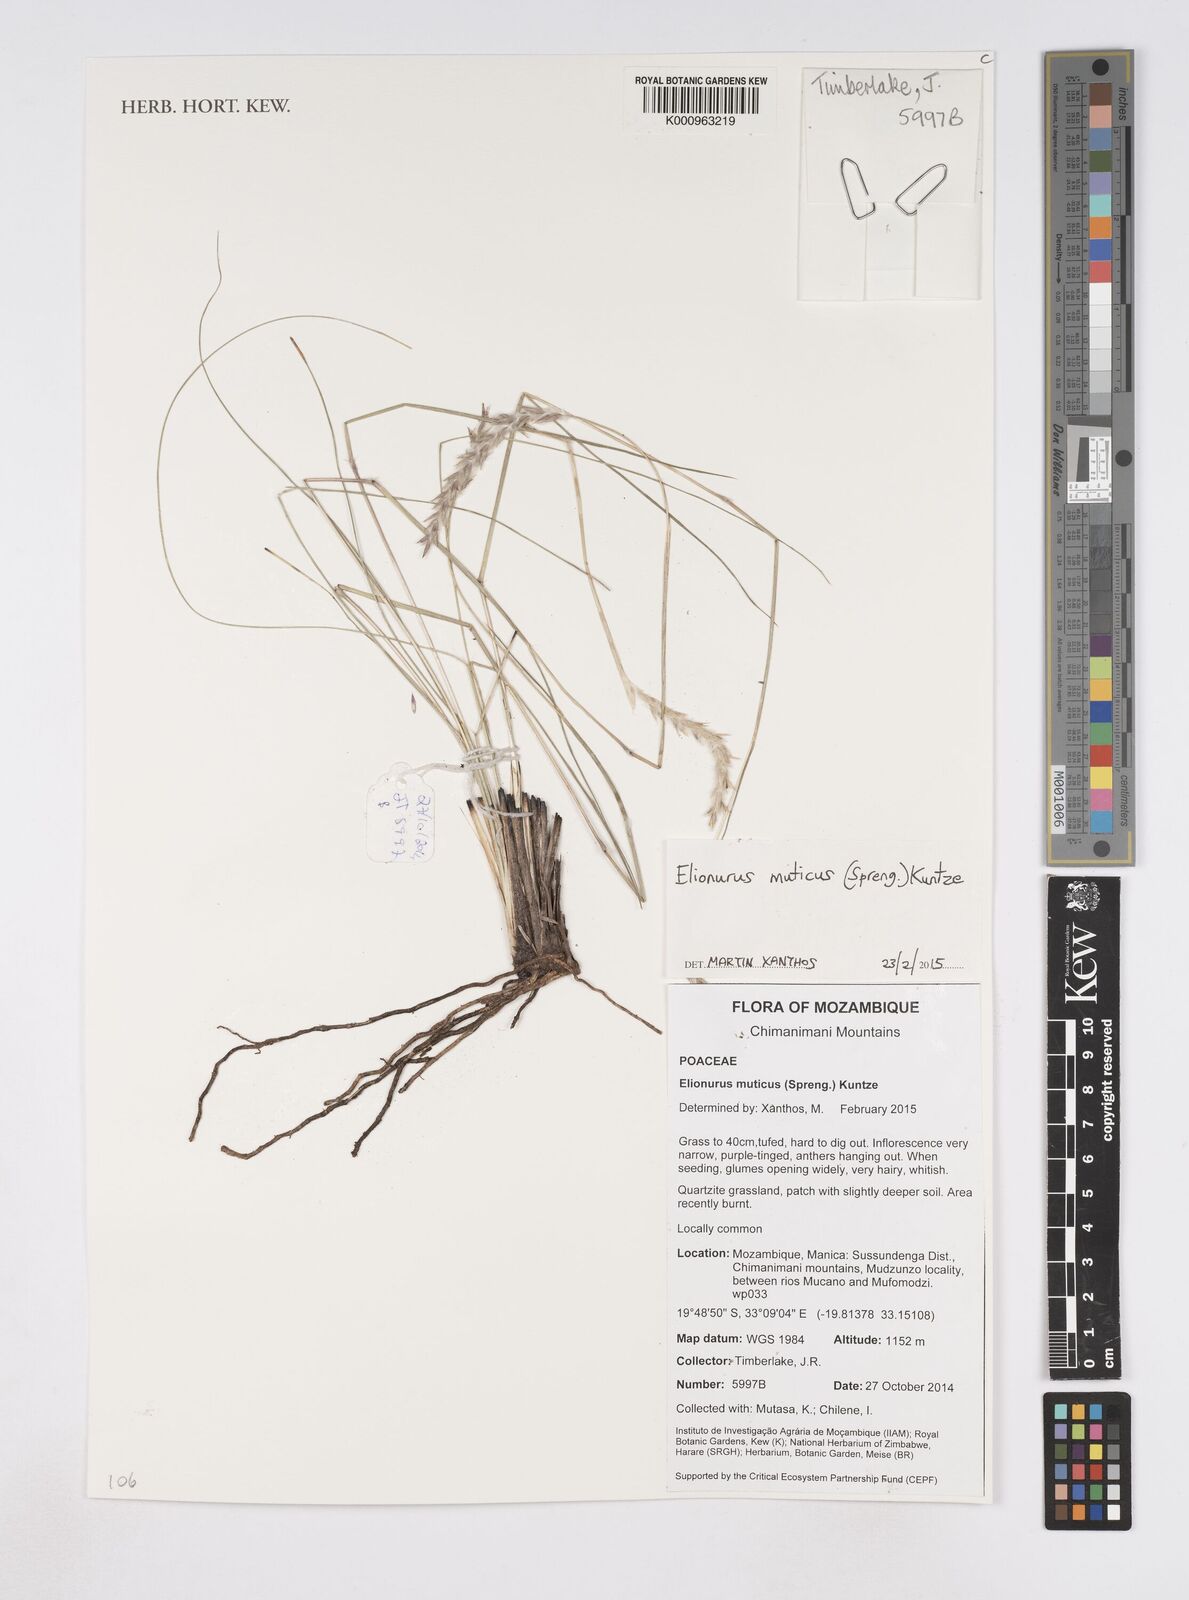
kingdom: Plantae
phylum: Tracheophyta
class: Liliopsida
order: Poales
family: Poaceae
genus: Elionurus
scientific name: Elionurus muticus
